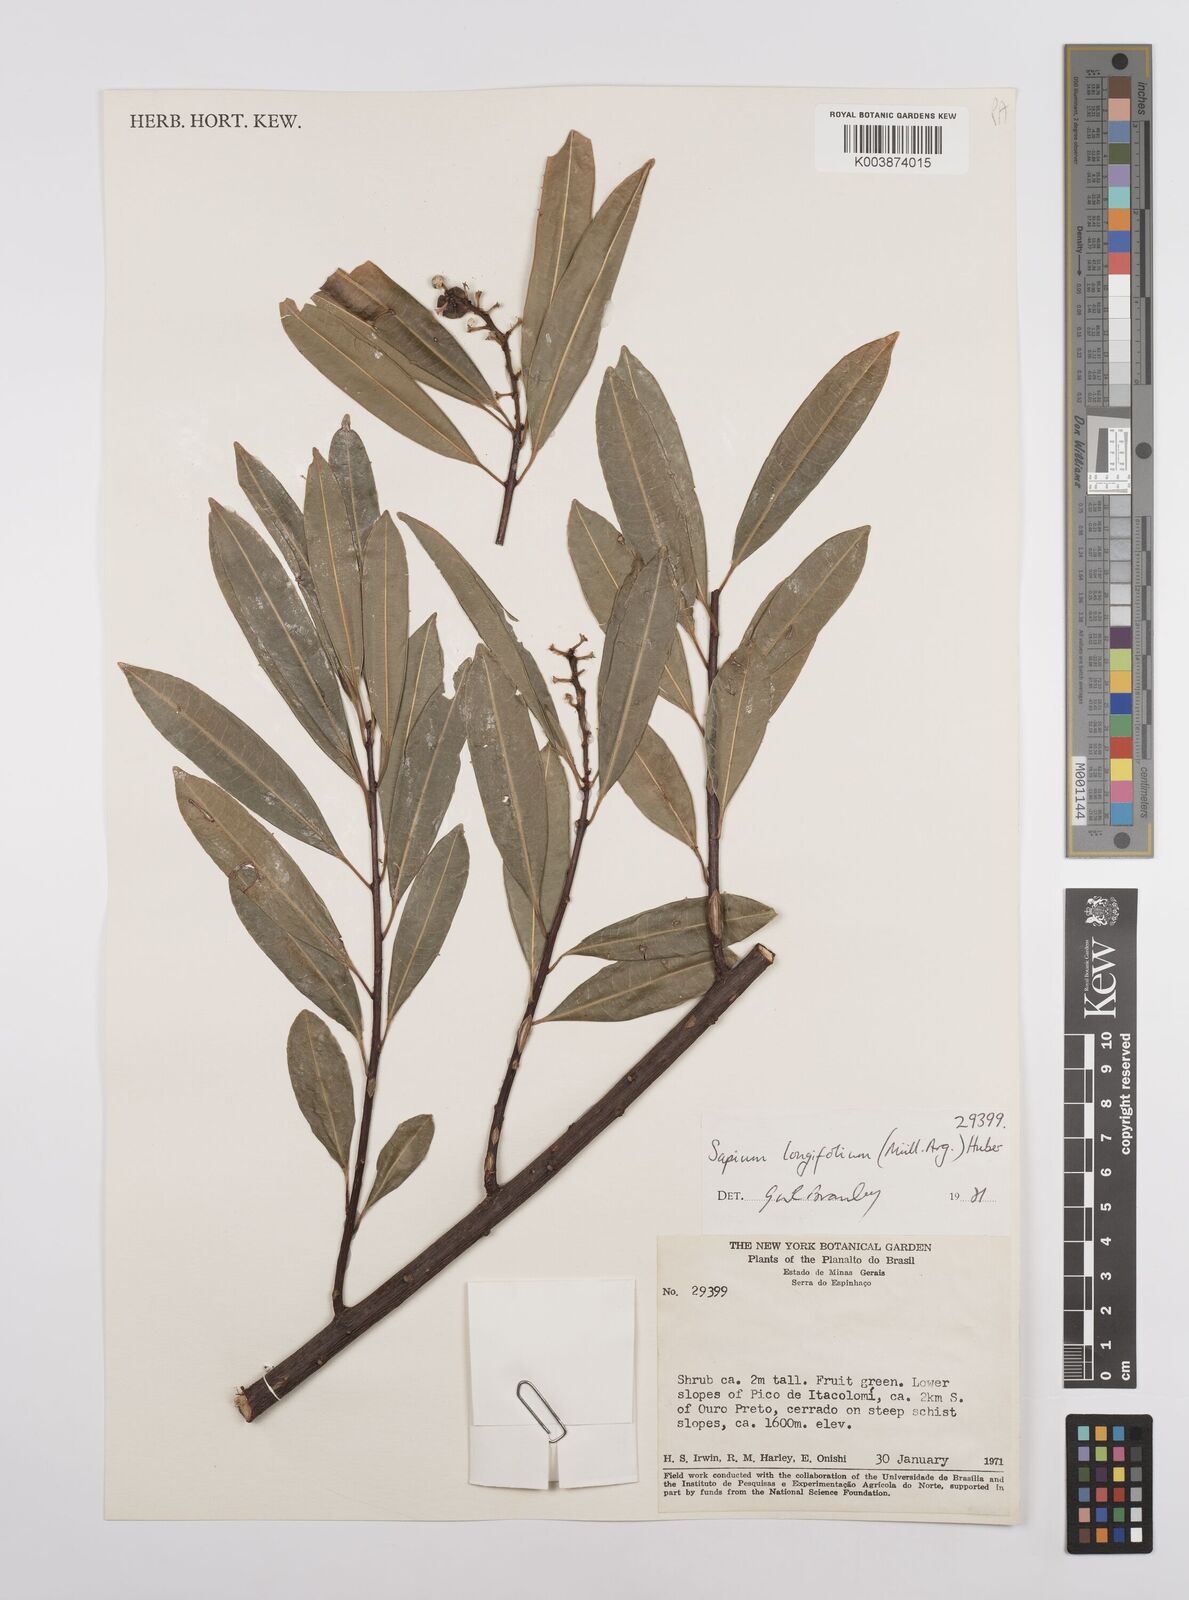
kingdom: Plantae
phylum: Tracheophyta
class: Magnoliopsida
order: Malpighiales
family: Euphorbiaceae
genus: Sapium
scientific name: Sapium haematospermum
